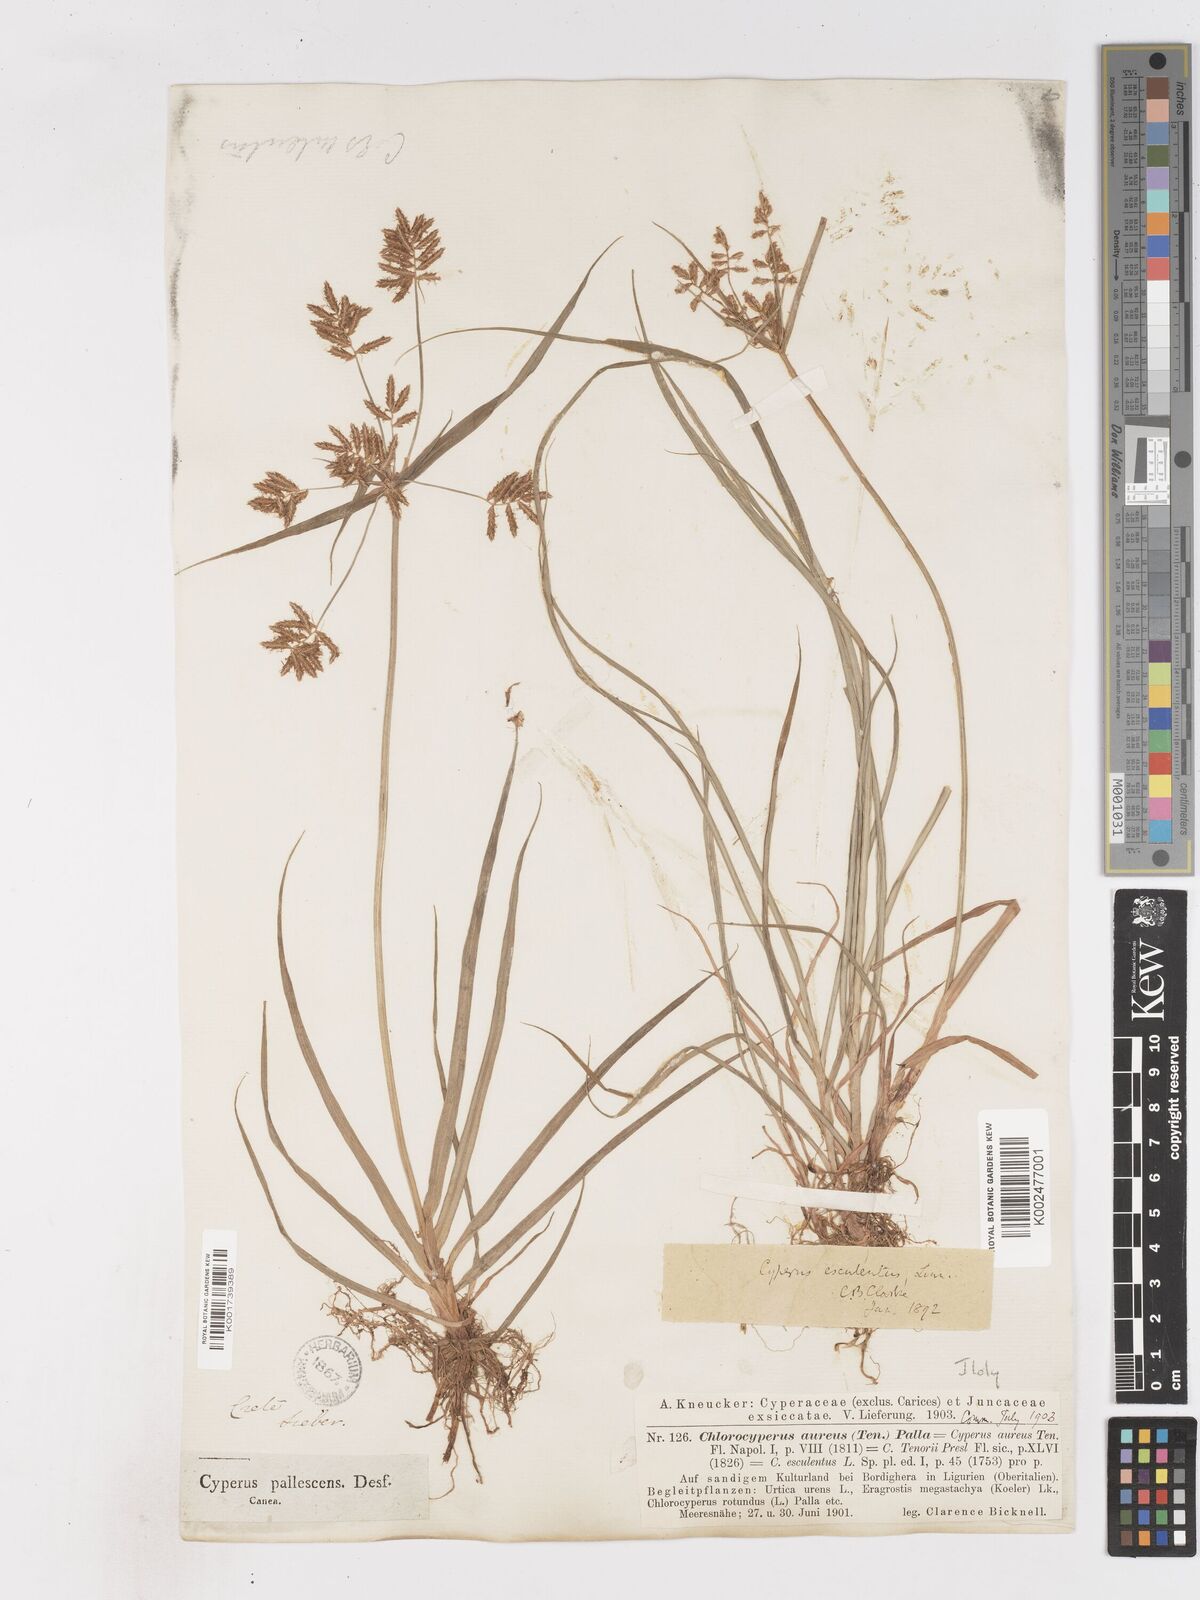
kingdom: Plantae
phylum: Tracheophyta
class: Liliopsida
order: Poales
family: Cyperaceae
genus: Cyperus
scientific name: Cyperus esculentus
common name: Yellow nutsedge
